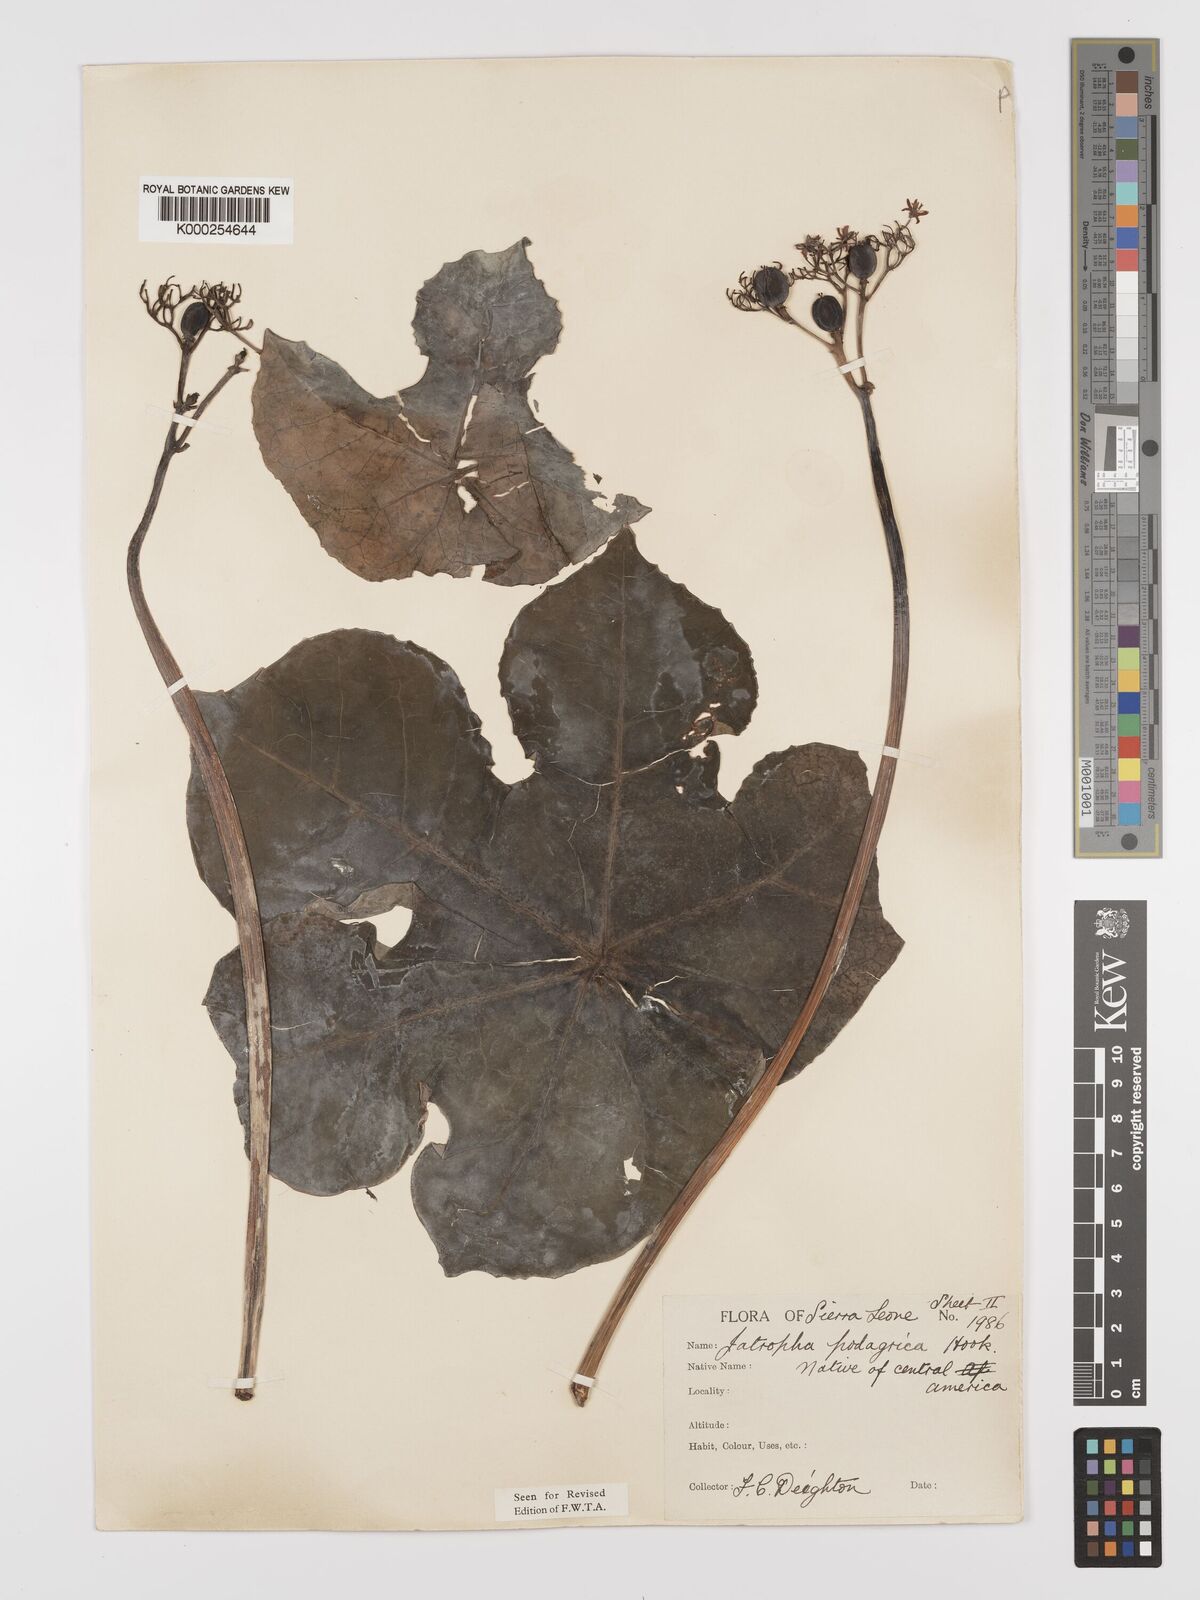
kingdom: Plantae
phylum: Tracheophyta
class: Magnoliopsida
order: Malpighiales
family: Euphorbiaceae
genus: Jatropha
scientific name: Jatropha podagrica
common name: Gout stalk
